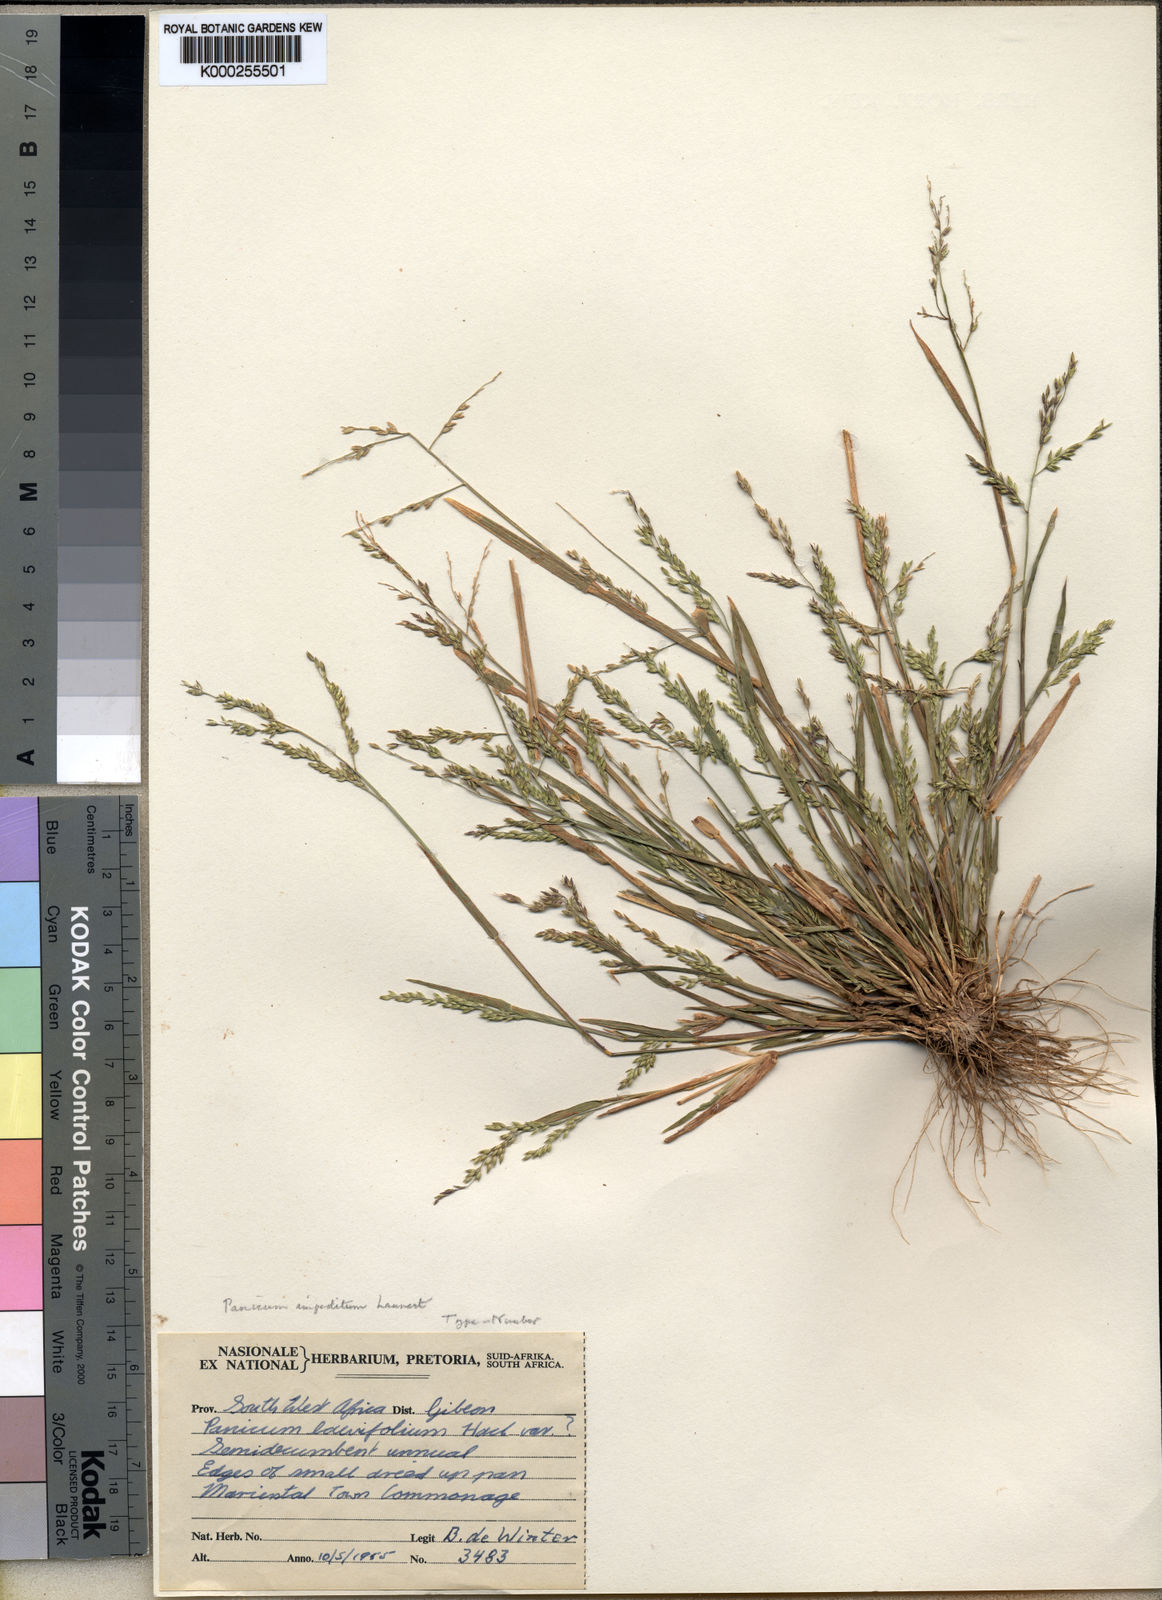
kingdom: Plantae
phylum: Tracheophyta
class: Liliopsida
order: Poales
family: Poaceae
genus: Panicum
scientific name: Panicum impeditum
